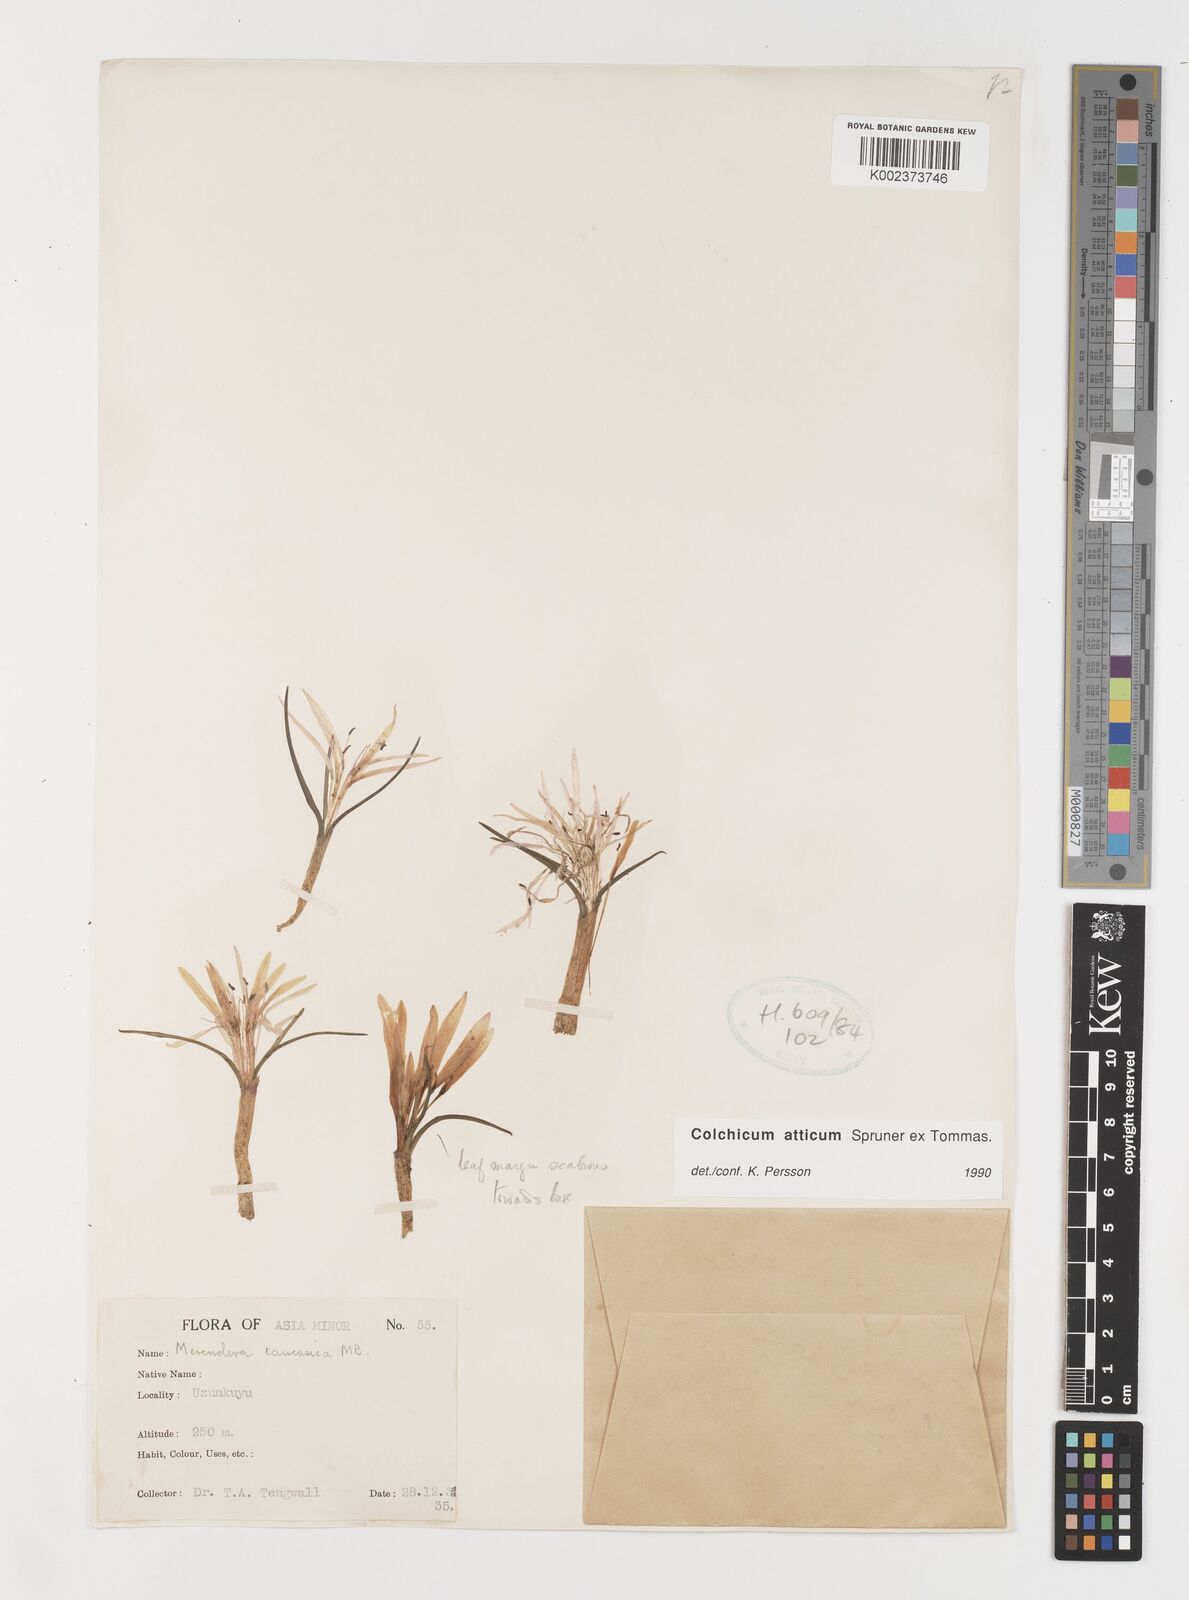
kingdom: Plantae
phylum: Tracheophyta
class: Liliopsida
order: Liliales
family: Colchicaceae
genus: Colchicum
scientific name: Colchicum atticum
